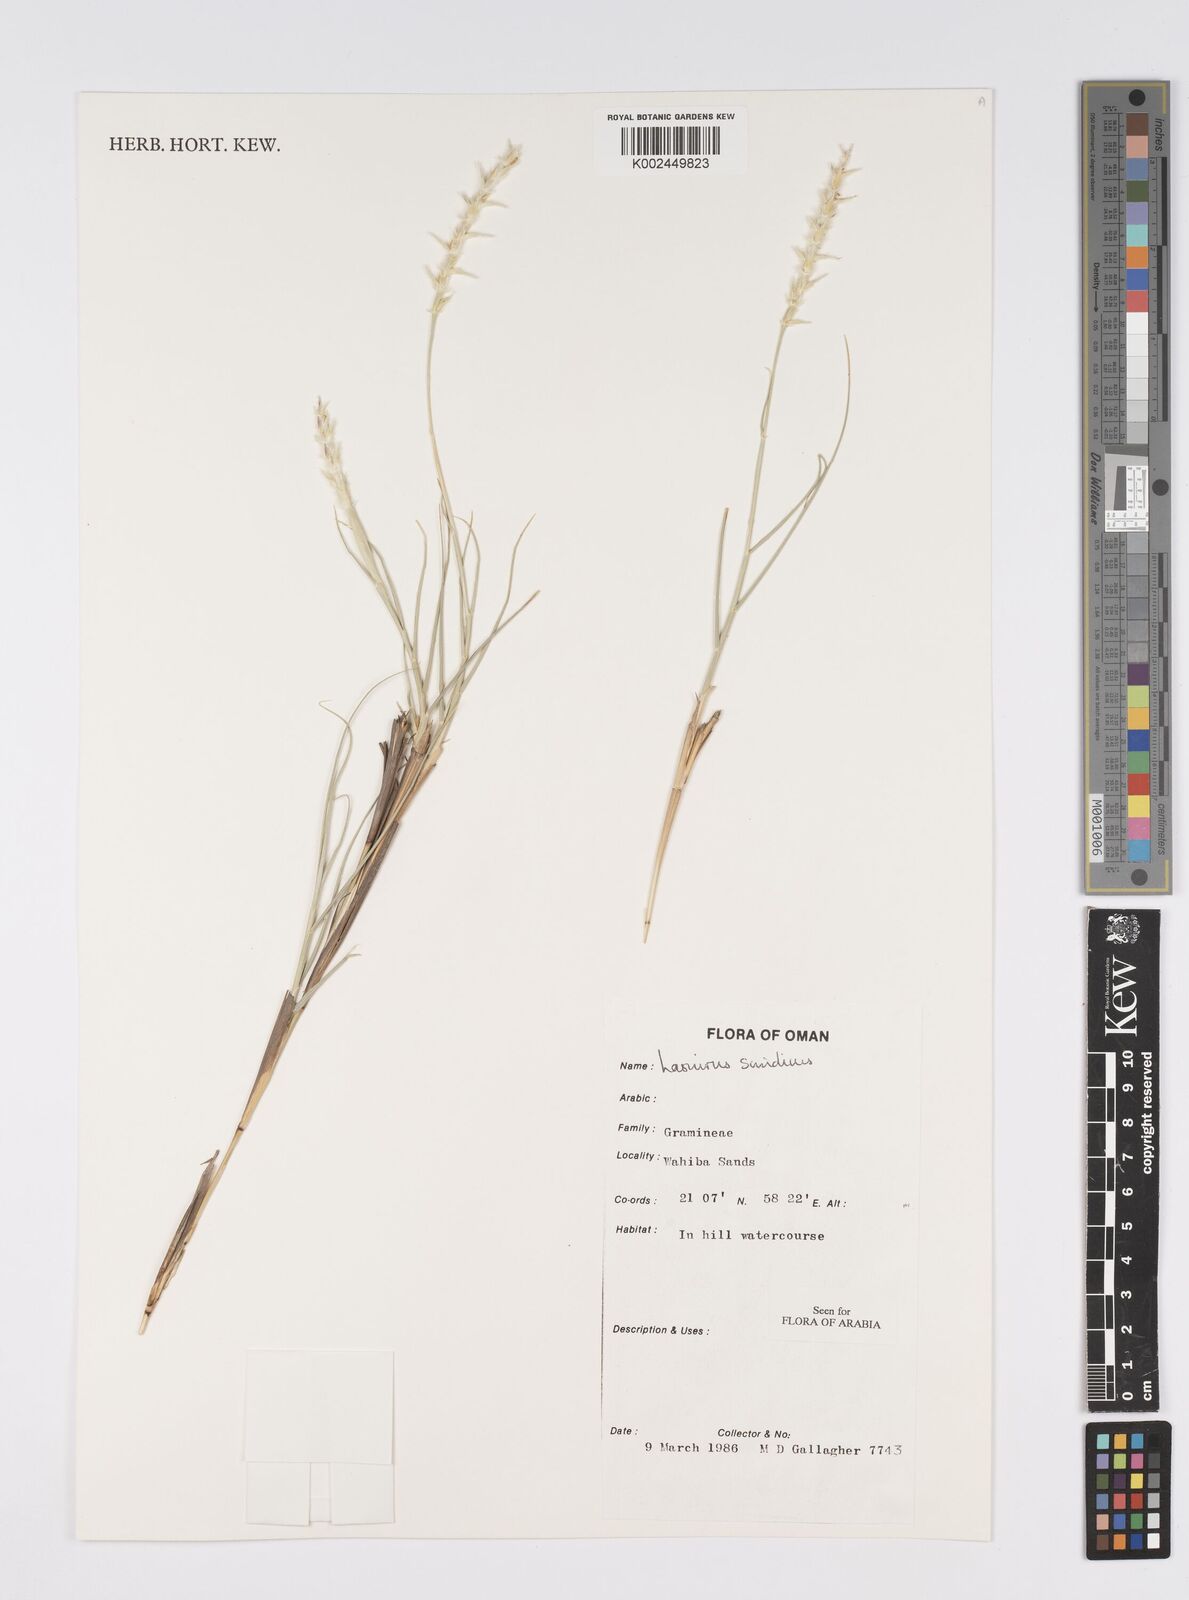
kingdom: Plantae
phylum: Tracheophyta
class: Liliopsida
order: Poales
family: Poaceae
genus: Lasiurus
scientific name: Lasiurus scindicus
